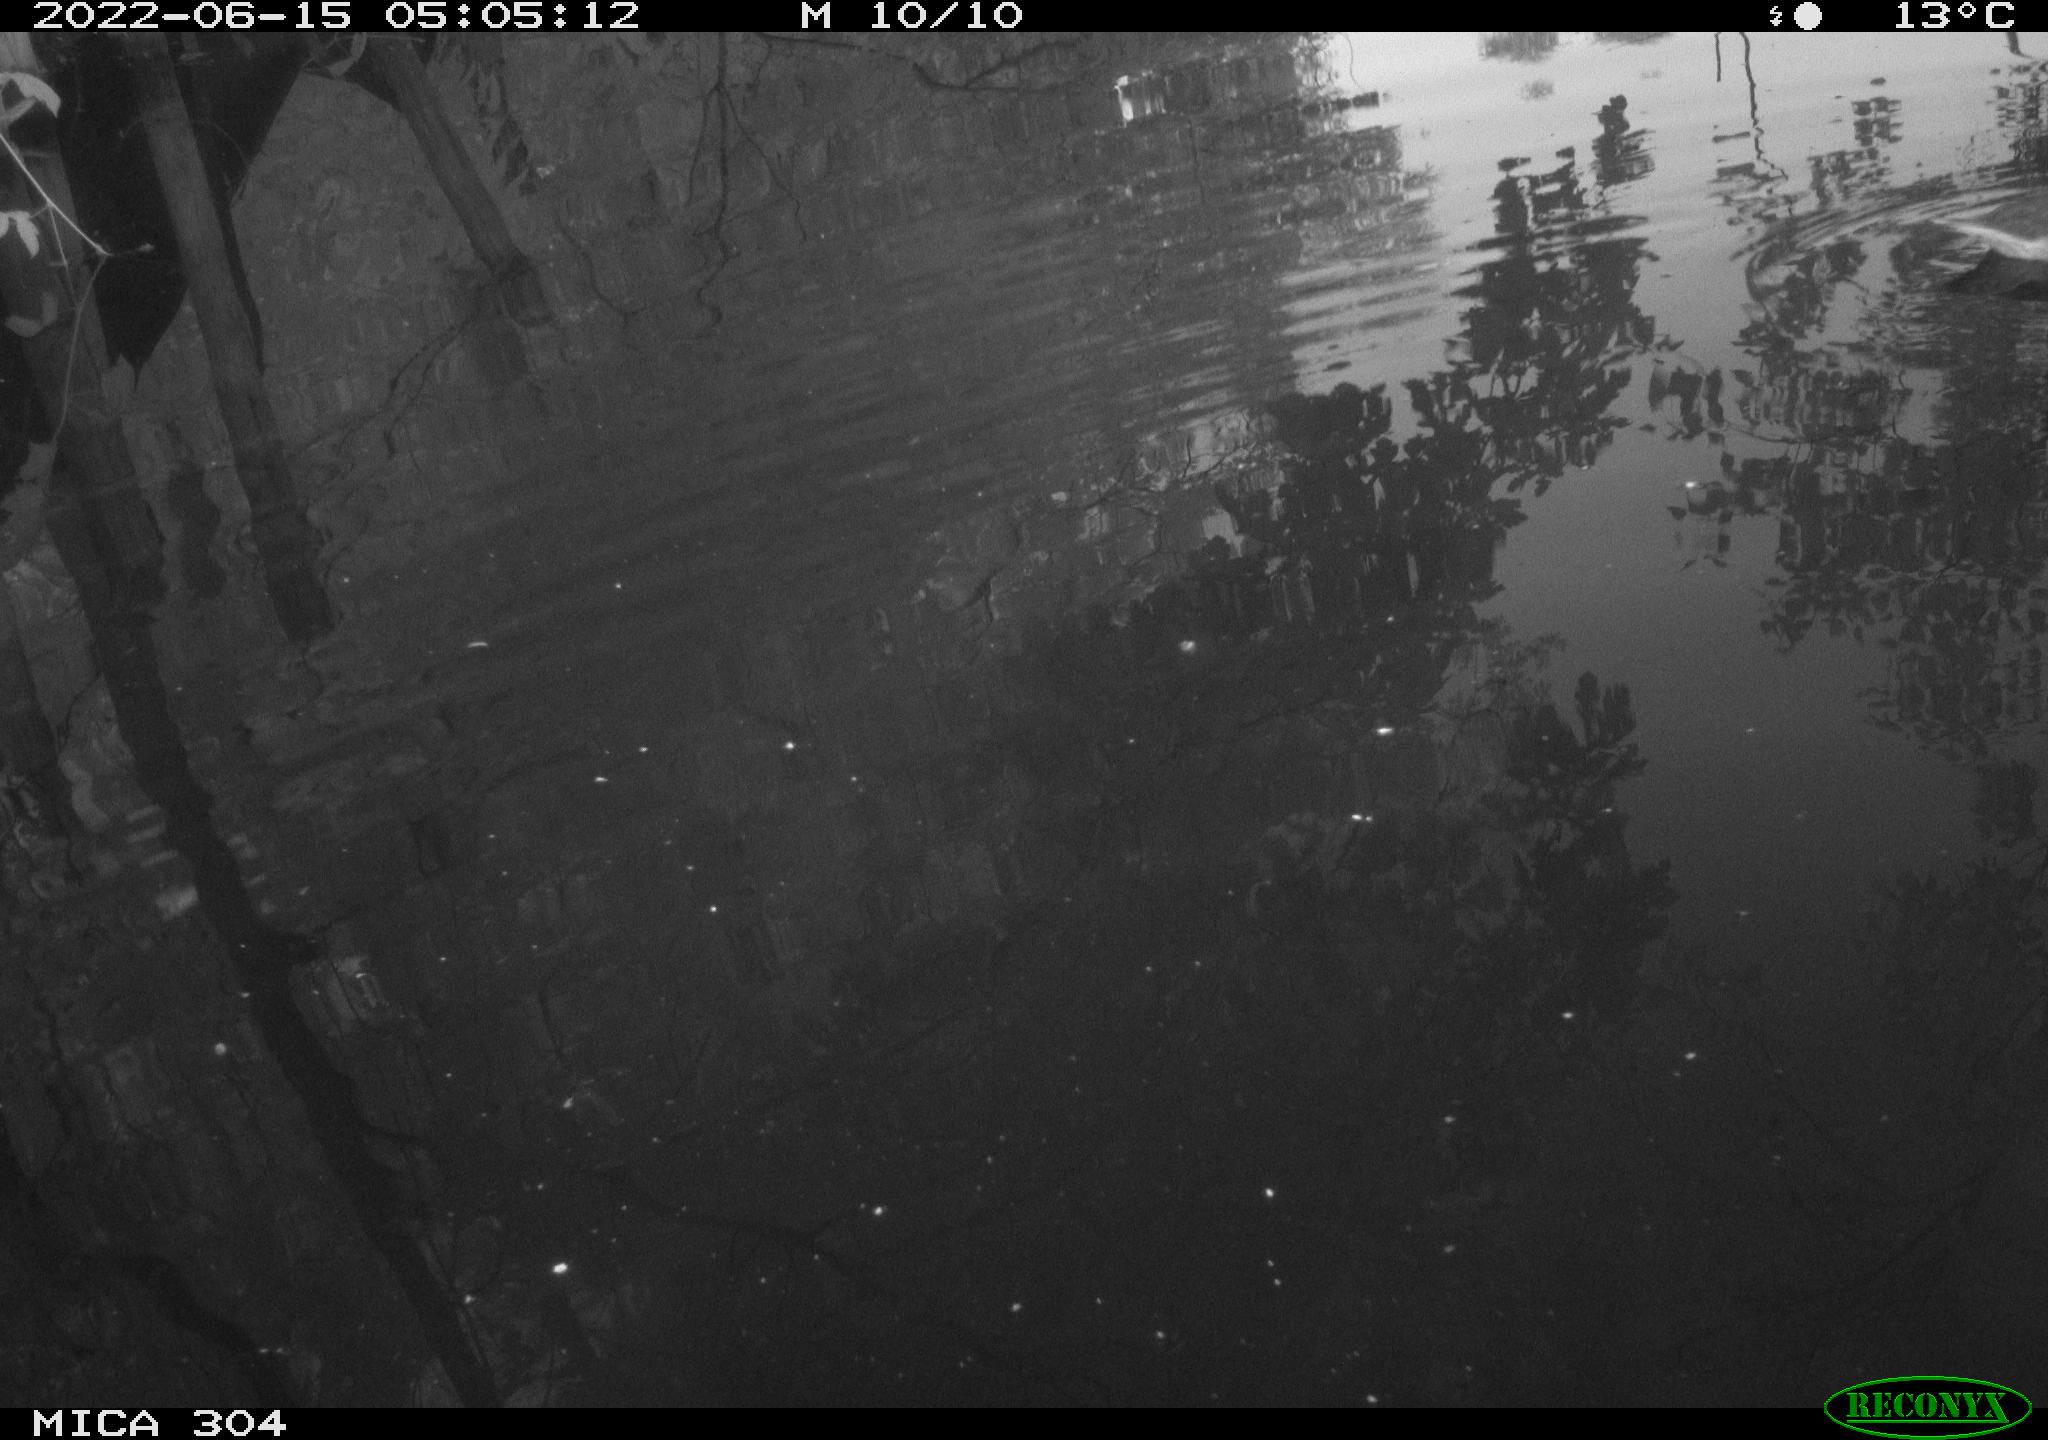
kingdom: Animalia
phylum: Chordata
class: Aves
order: Anseriformes
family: Anatidae
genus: Anas
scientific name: Anas platyrhynchos
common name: Mallard
